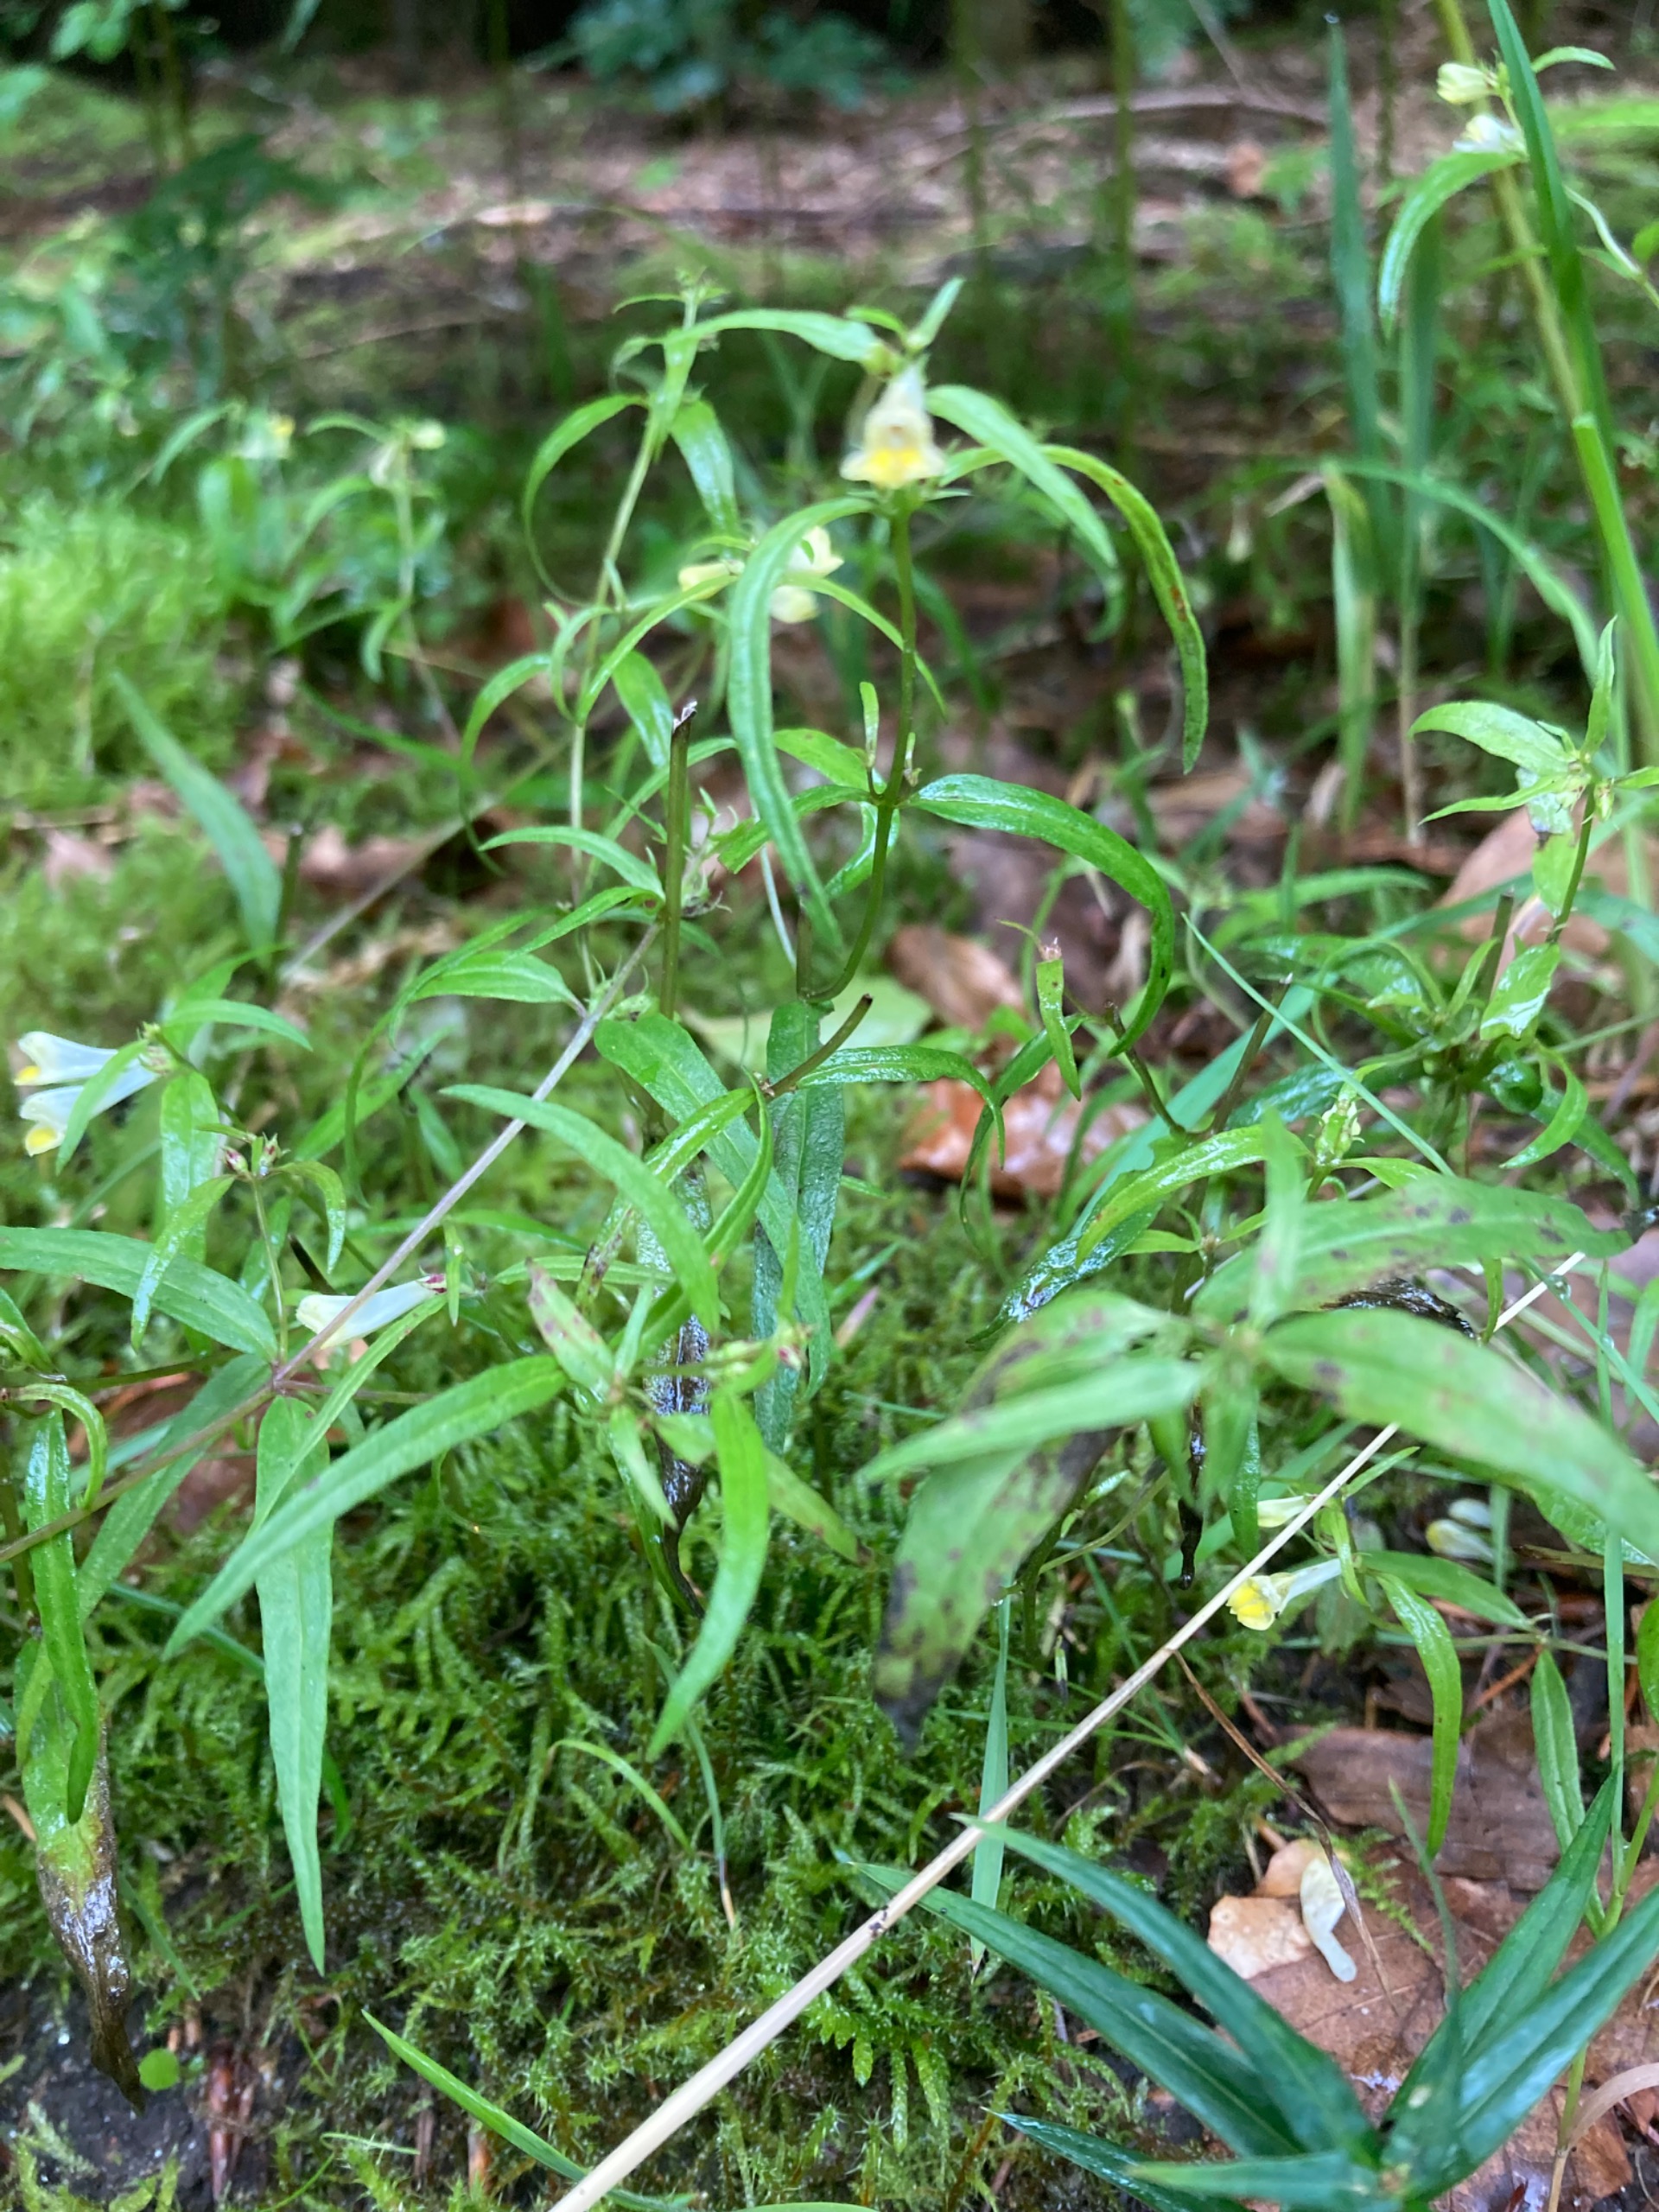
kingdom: Plantae
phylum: Tracheophyta
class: Magnoliopsida
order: Lamiales
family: Orobanchaceae
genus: Melampyrum
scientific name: Melampyrum pratense
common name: Almindelig kohvede
